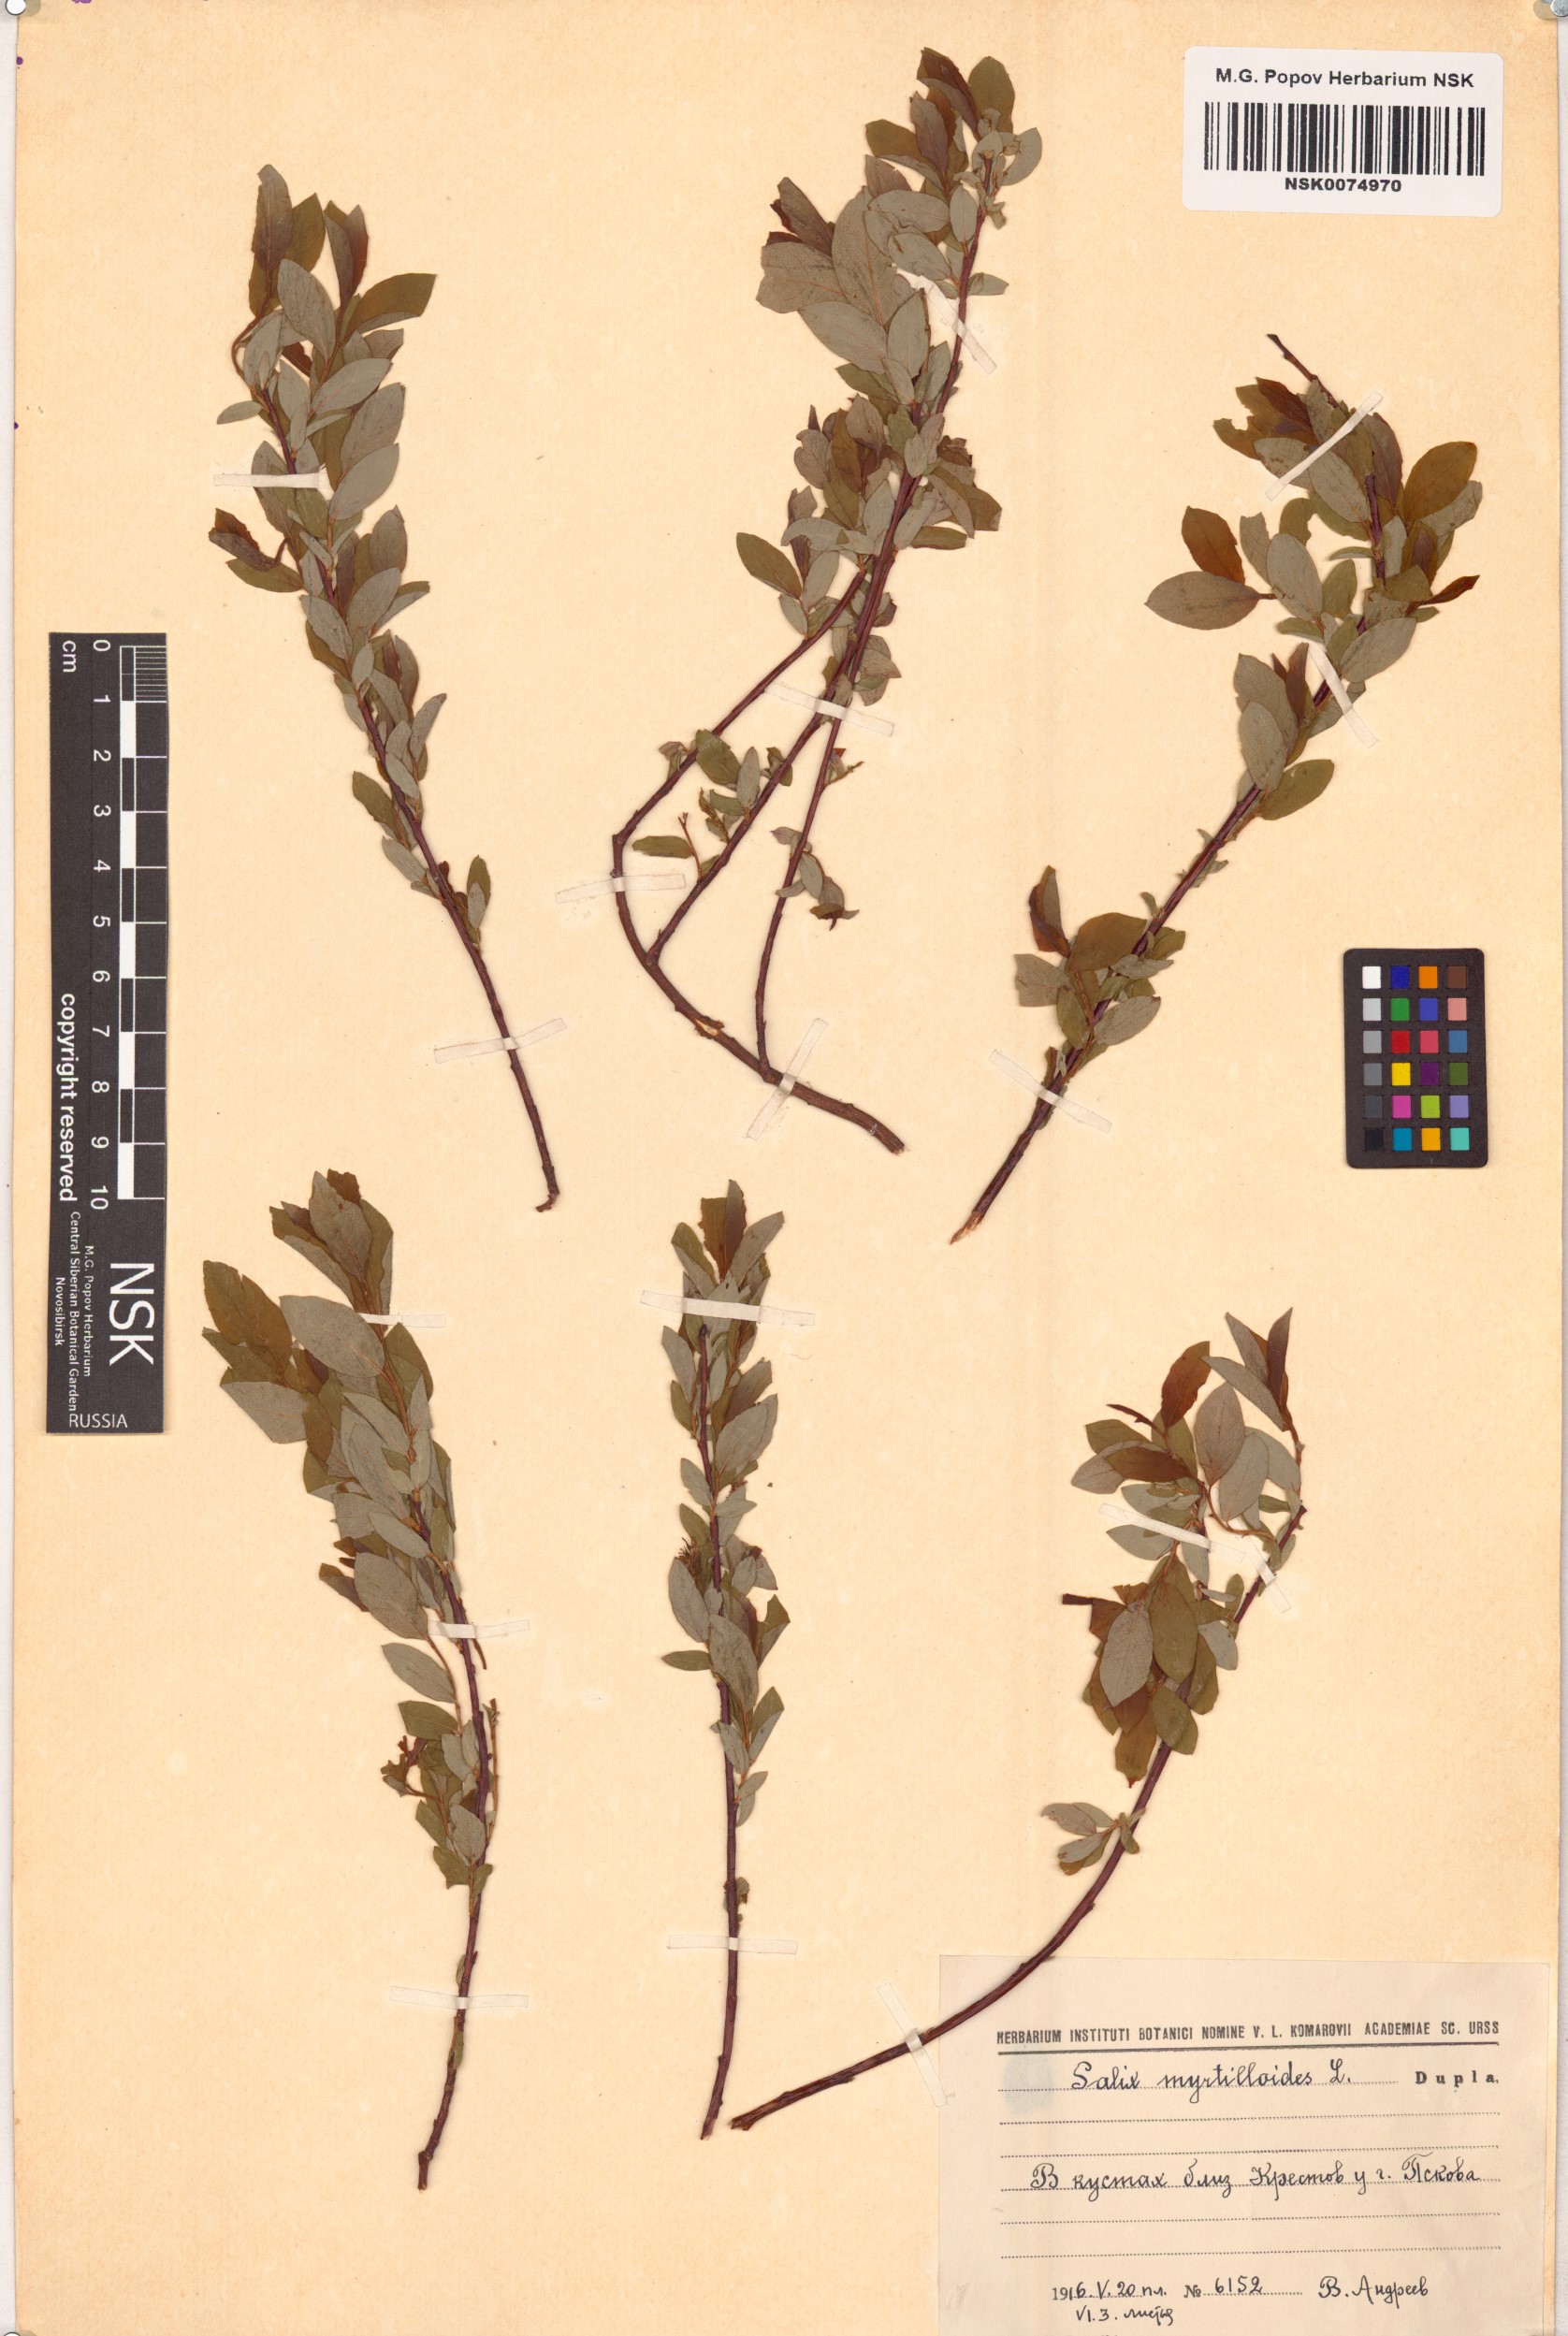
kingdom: Plantae
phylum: Tracheophyta
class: Magnoliopsida
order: Malpighiales
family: Salicaceae
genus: Salix
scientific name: Salix myrtilloides
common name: Myrtle-leaved willow
